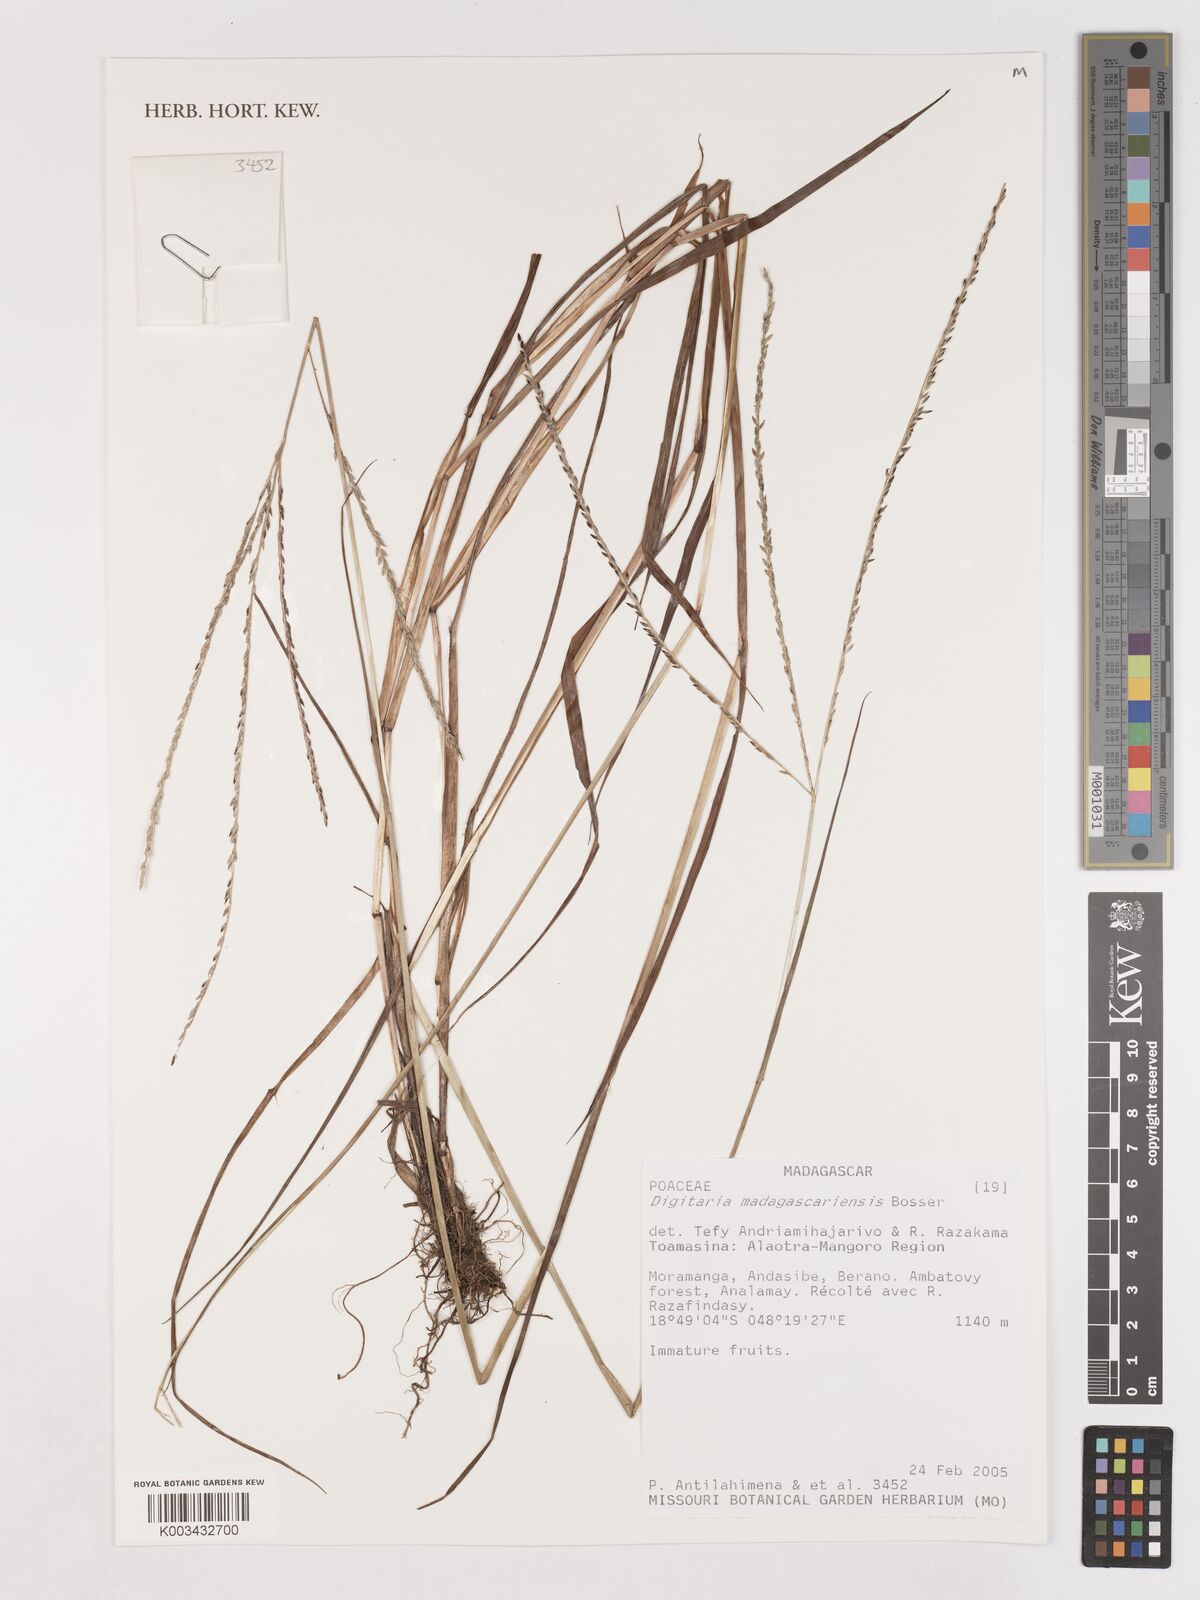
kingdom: Plantae
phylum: Tracheophyta
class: Liliopsida
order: Poales
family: Poaceae
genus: Digitaria
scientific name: Digitaria fulva
